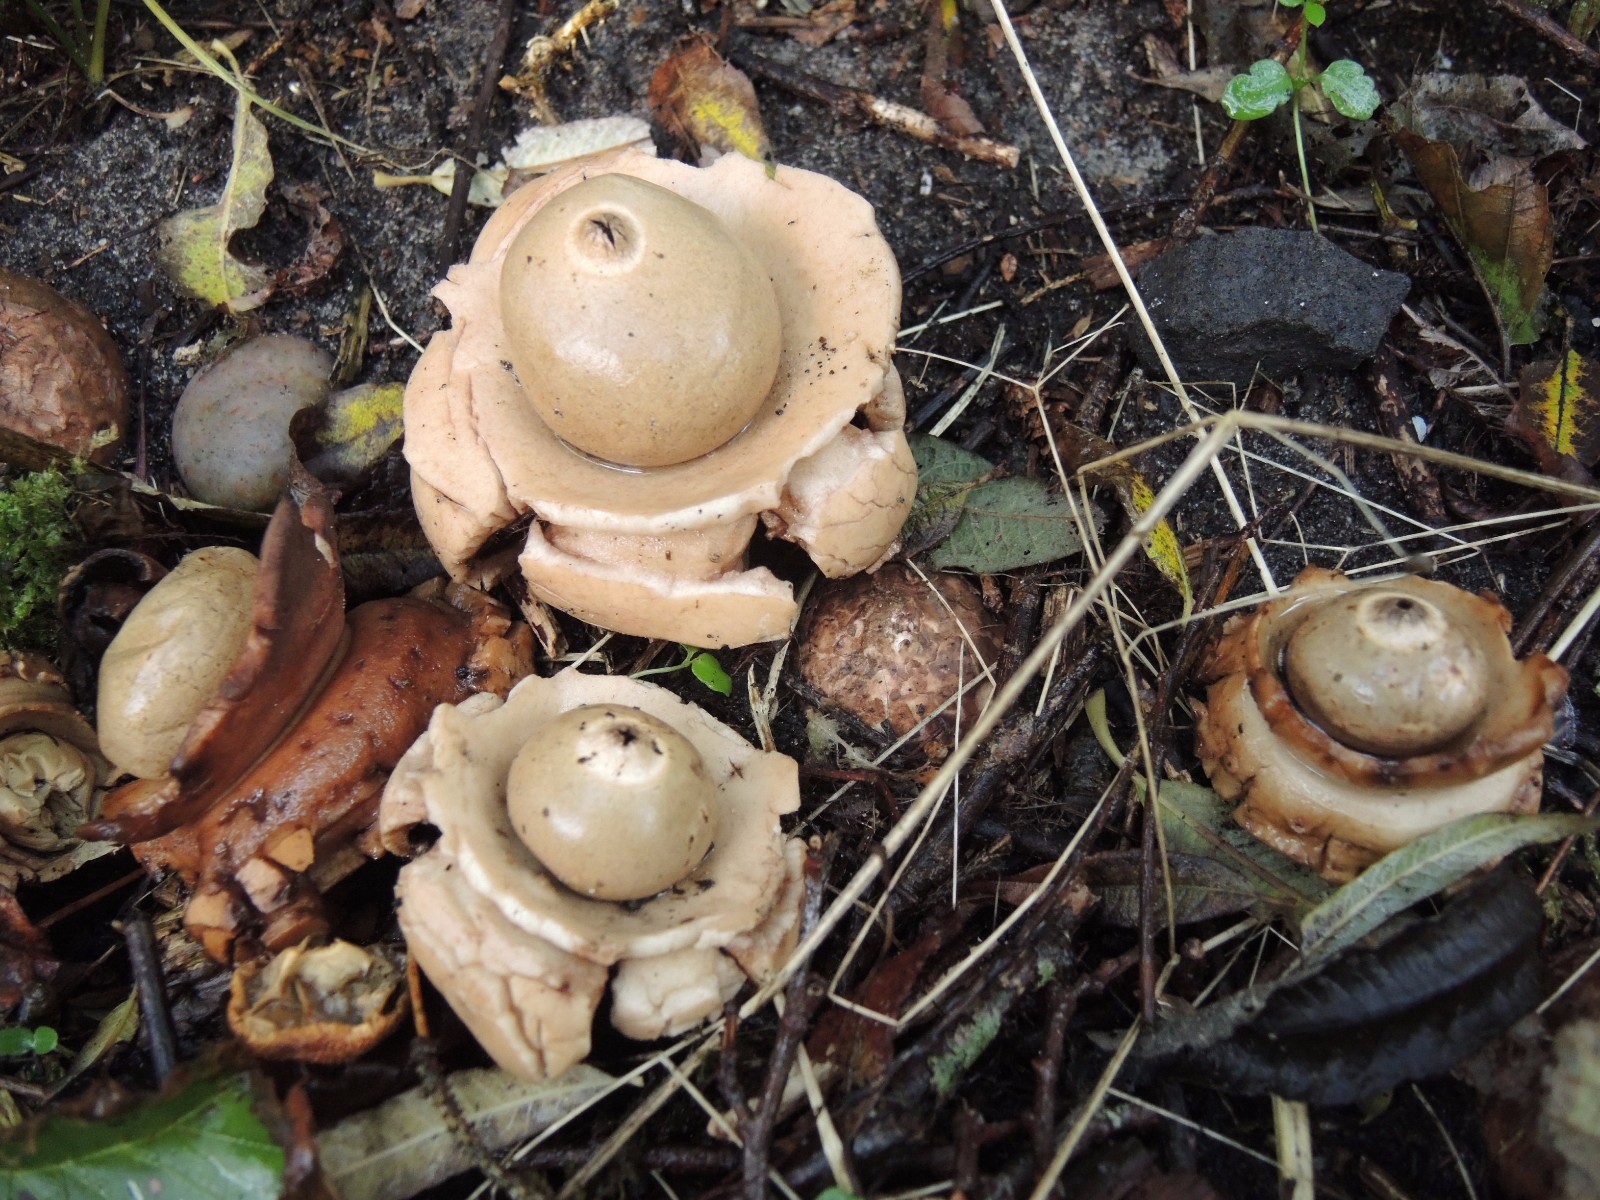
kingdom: Fungi
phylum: Basidiomycota
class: Agaricomycetes
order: Geastrales
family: Geastraceae
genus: Geastrum
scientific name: Geastrum michelianum
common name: kødet stjernebold
